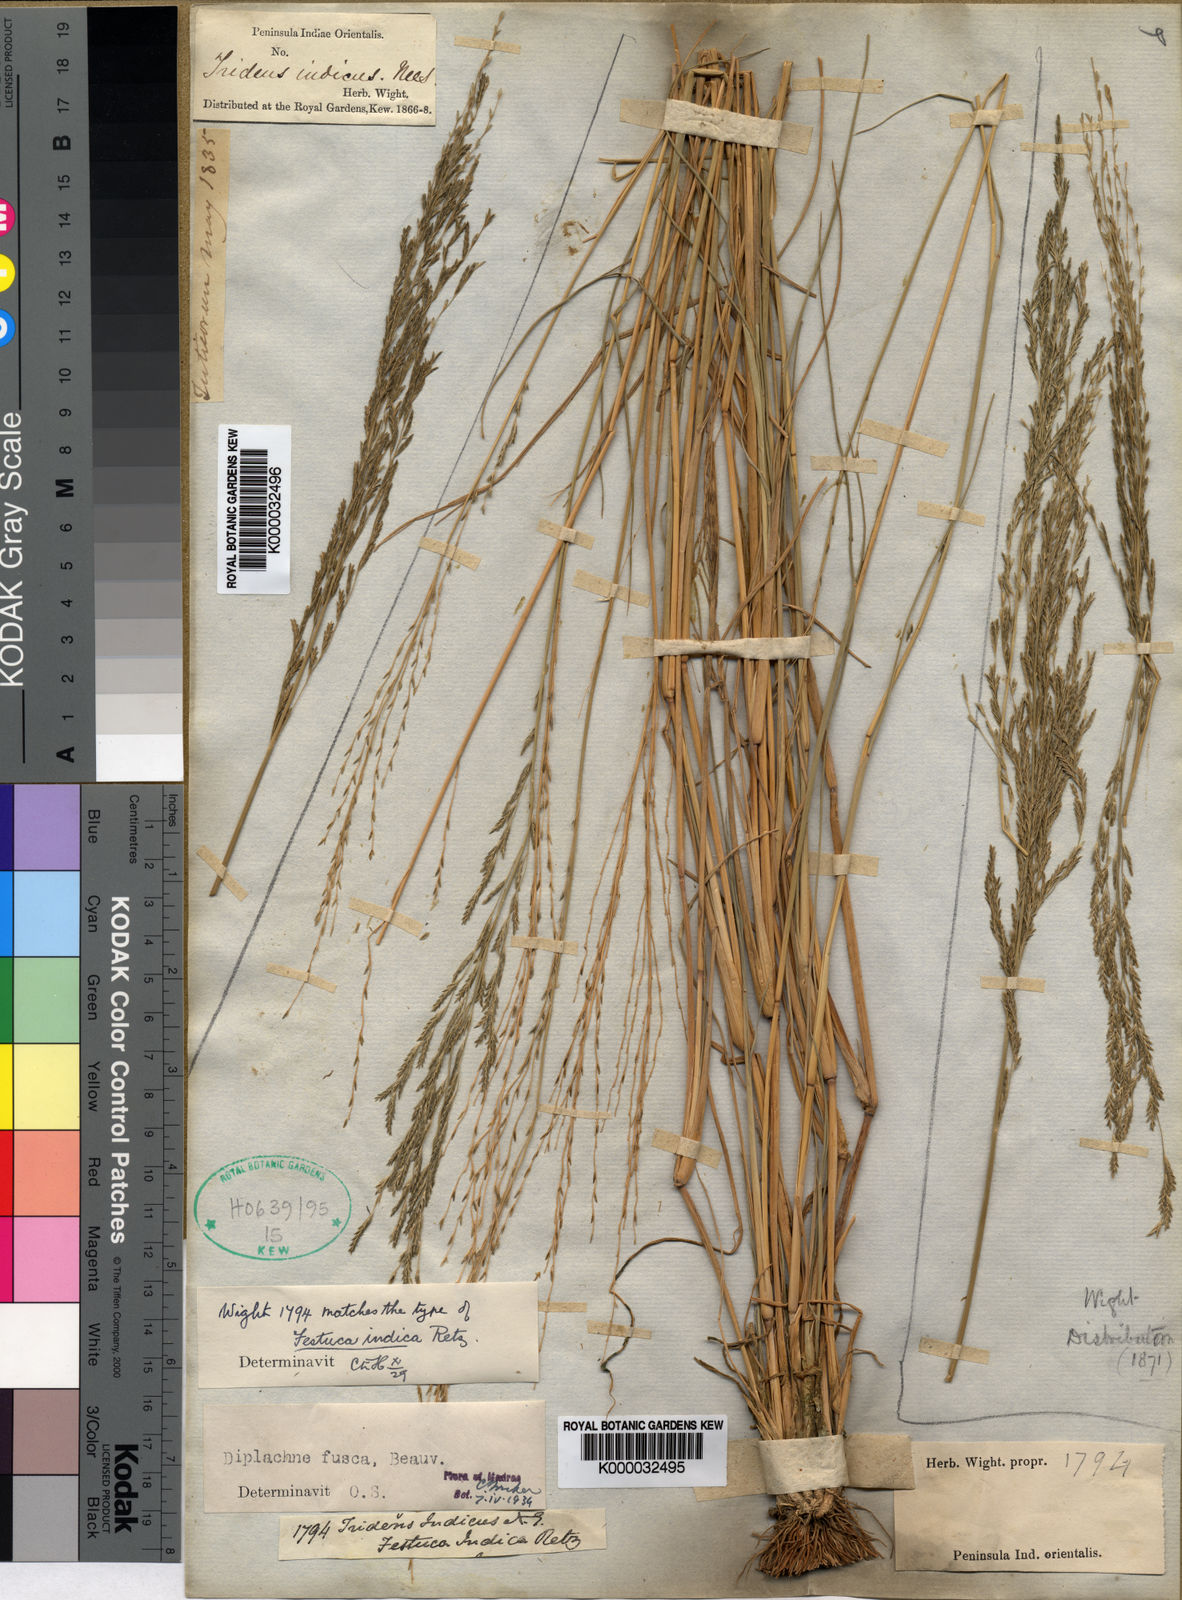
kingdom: Plantae
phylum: Tracheophyta
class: Liliopsida
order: Poales
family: Poaceae
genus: Diplachne
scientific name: Diplachne fusca
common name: Brown beetle grass
